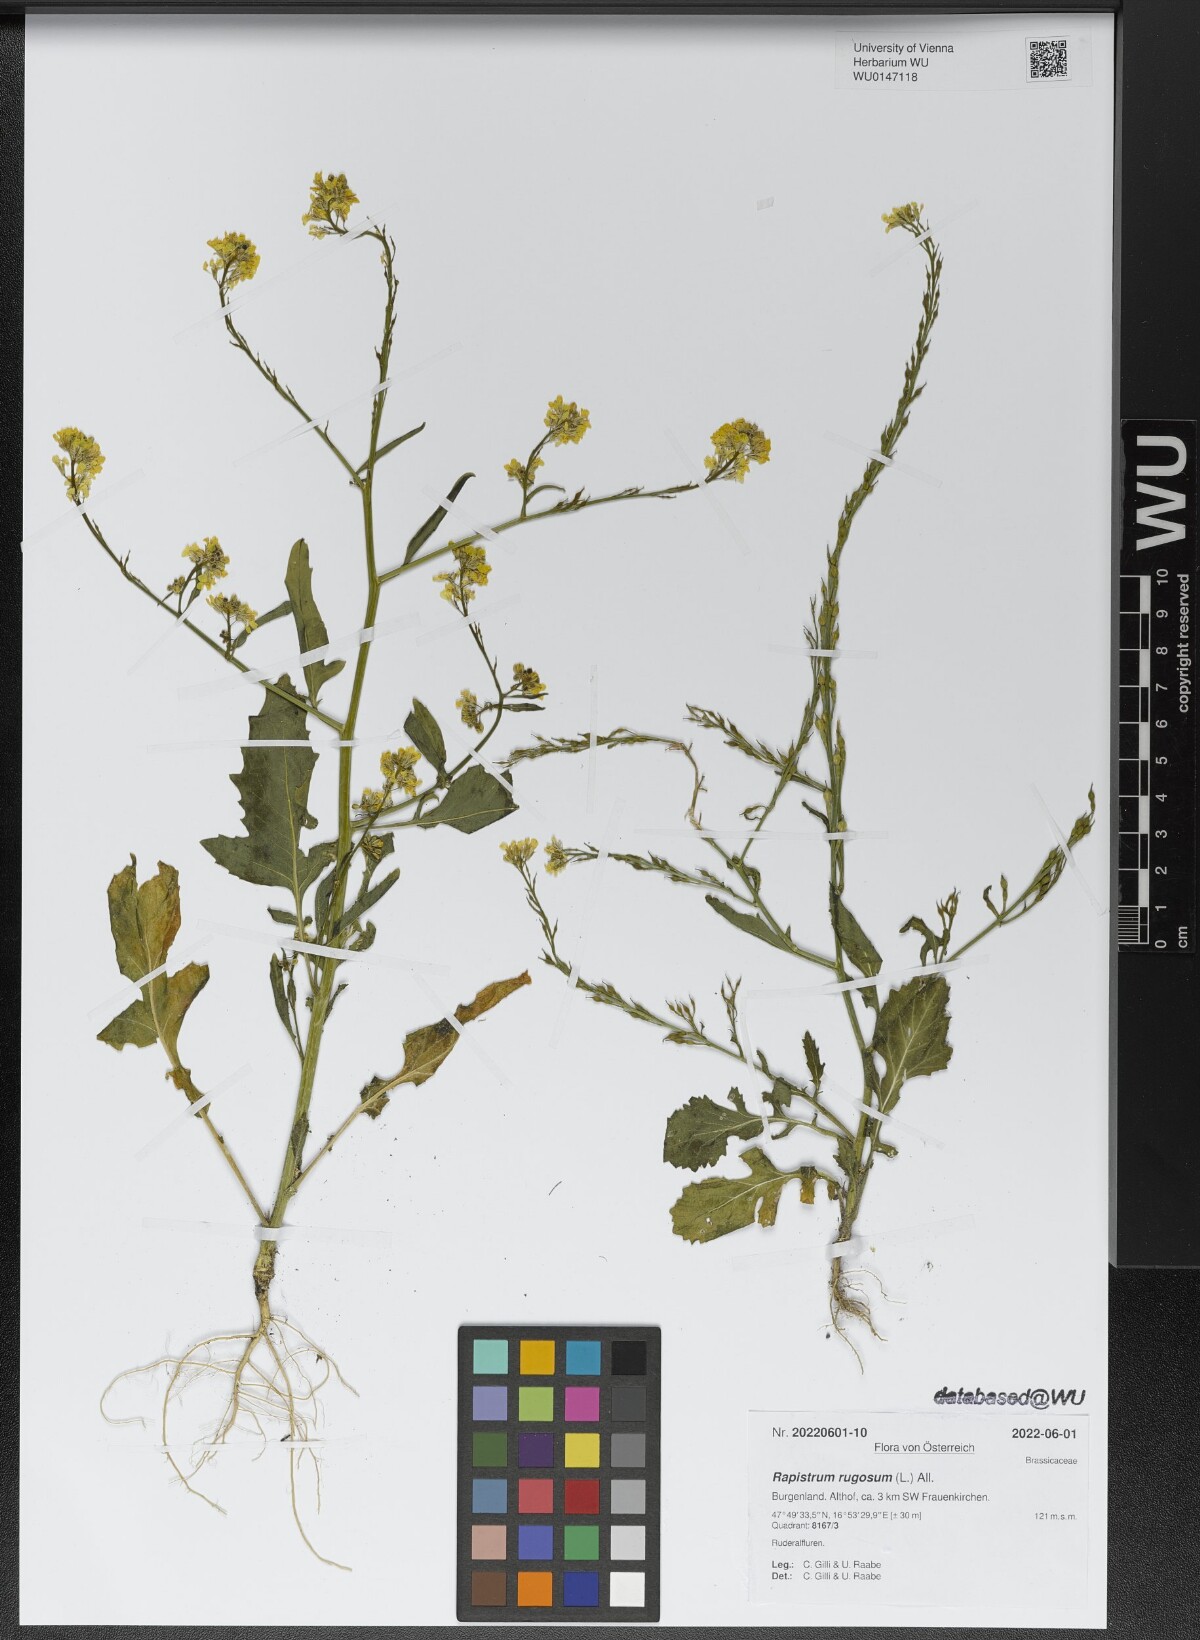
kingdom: Plantae
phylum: Tracheophyta
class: Magnoliopsida
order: Brassicales
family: Brassicaceae
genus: Rapistrum
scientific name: Rapistrum rugosum
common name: Annual bastardcabbage
